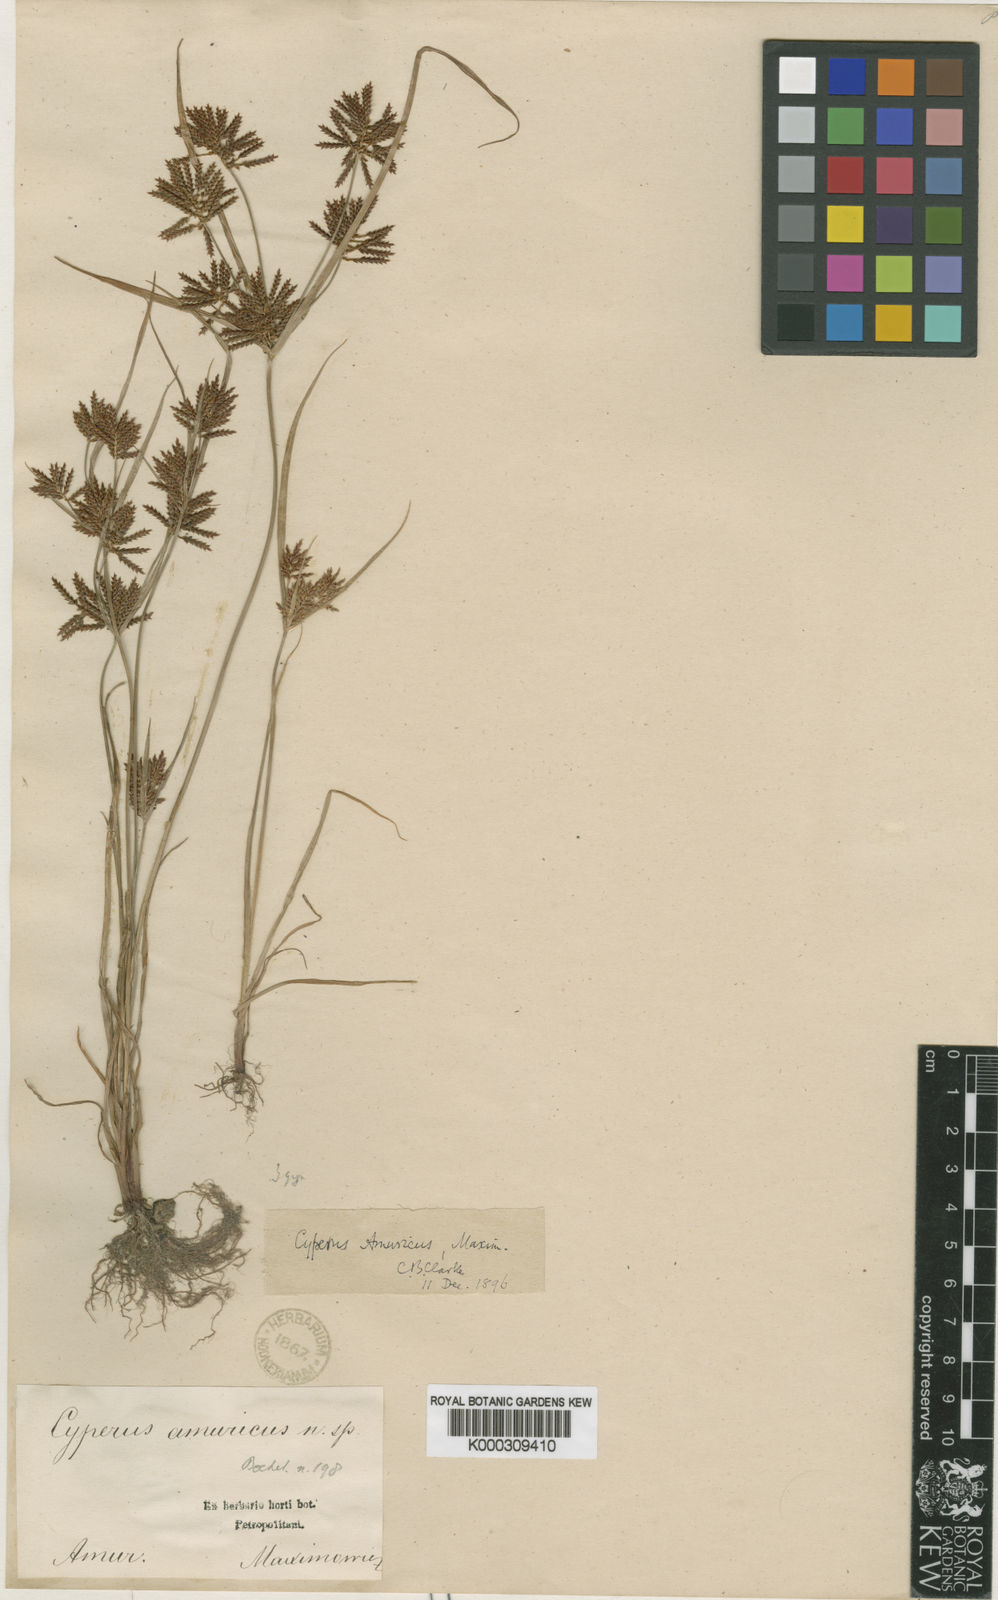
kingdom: Plantae
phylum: Tracheophyta
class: Liliopsida
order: Poales
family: Cyperaceae
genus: Cyperus
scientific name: Cyperus amuricus
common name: Asian flatsedge
